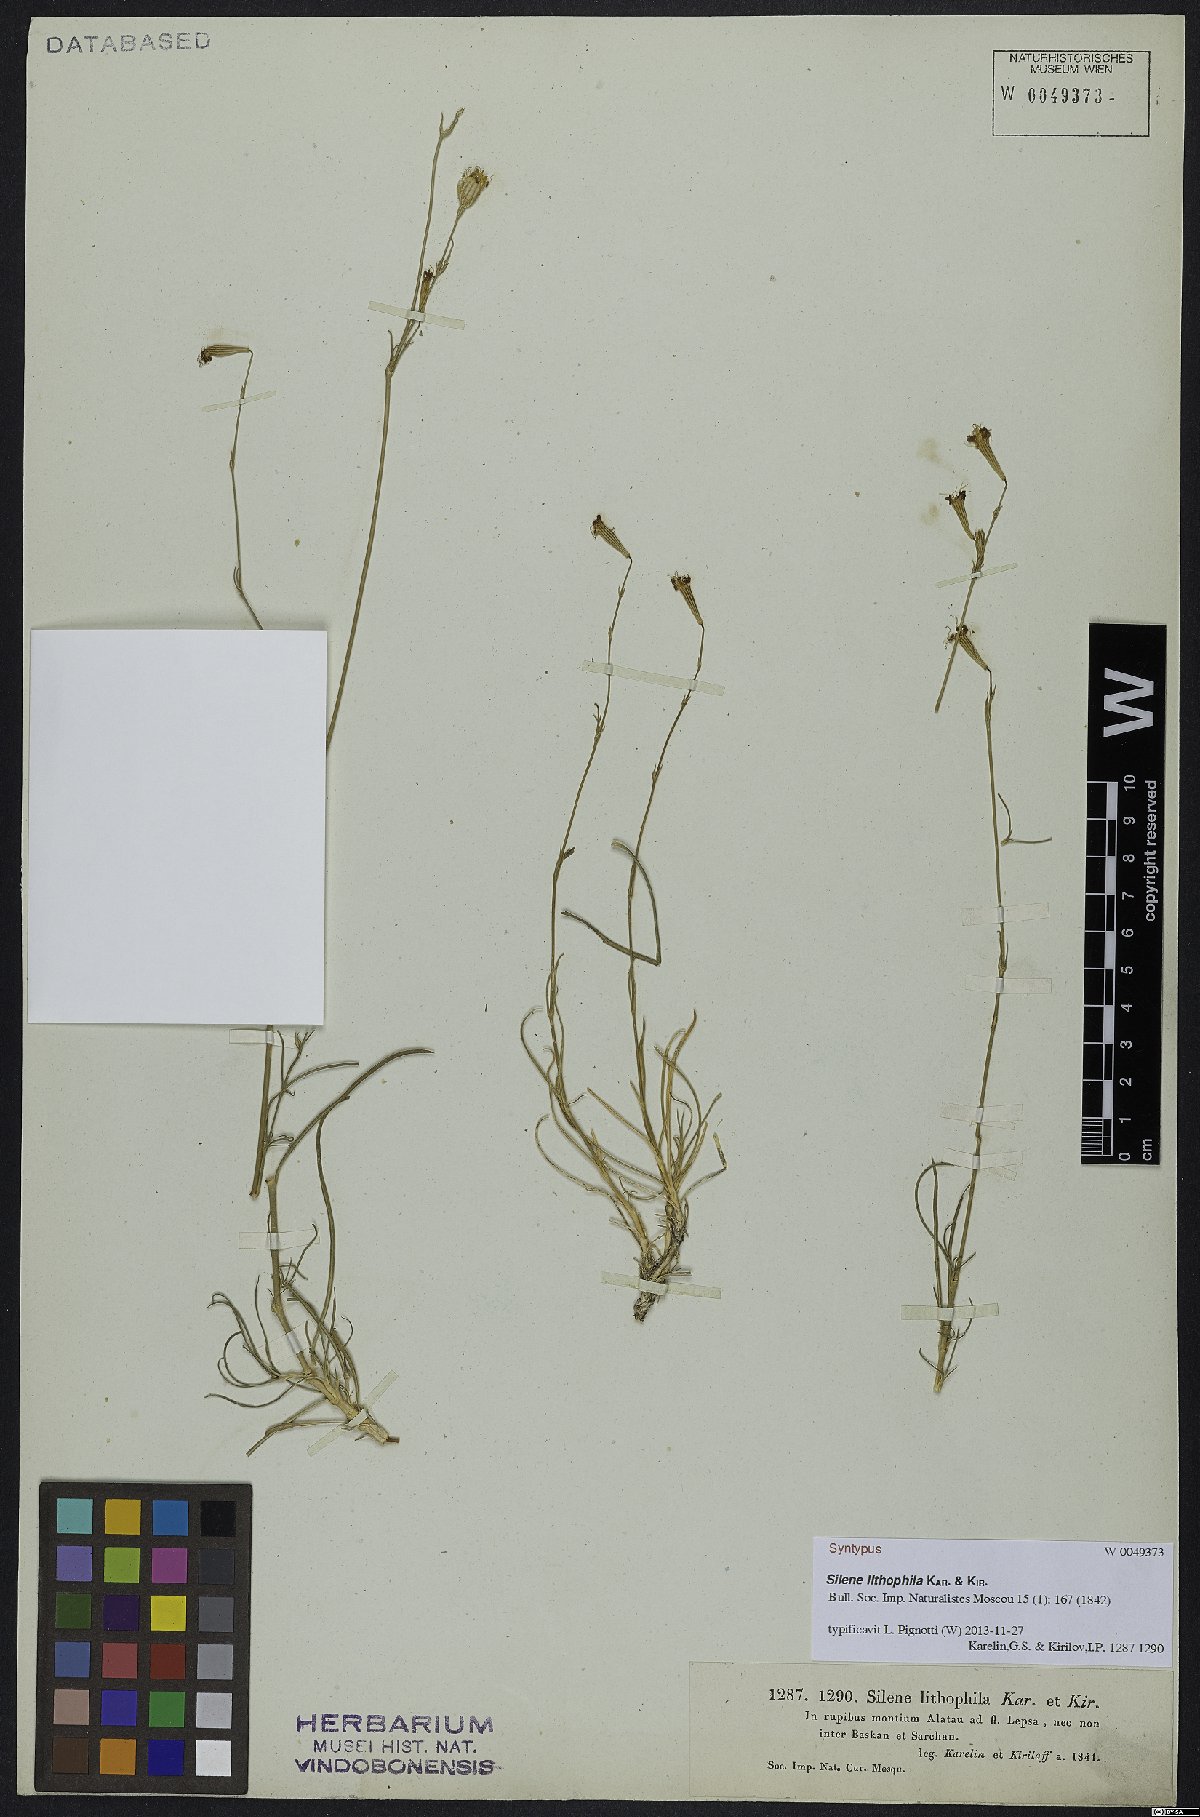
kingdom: Plantae
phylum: Tracheophyta
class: Magnoliopsida
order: Caryophyllales
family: Caryophyllaceae
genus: Silene
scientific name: Silene lithophila
